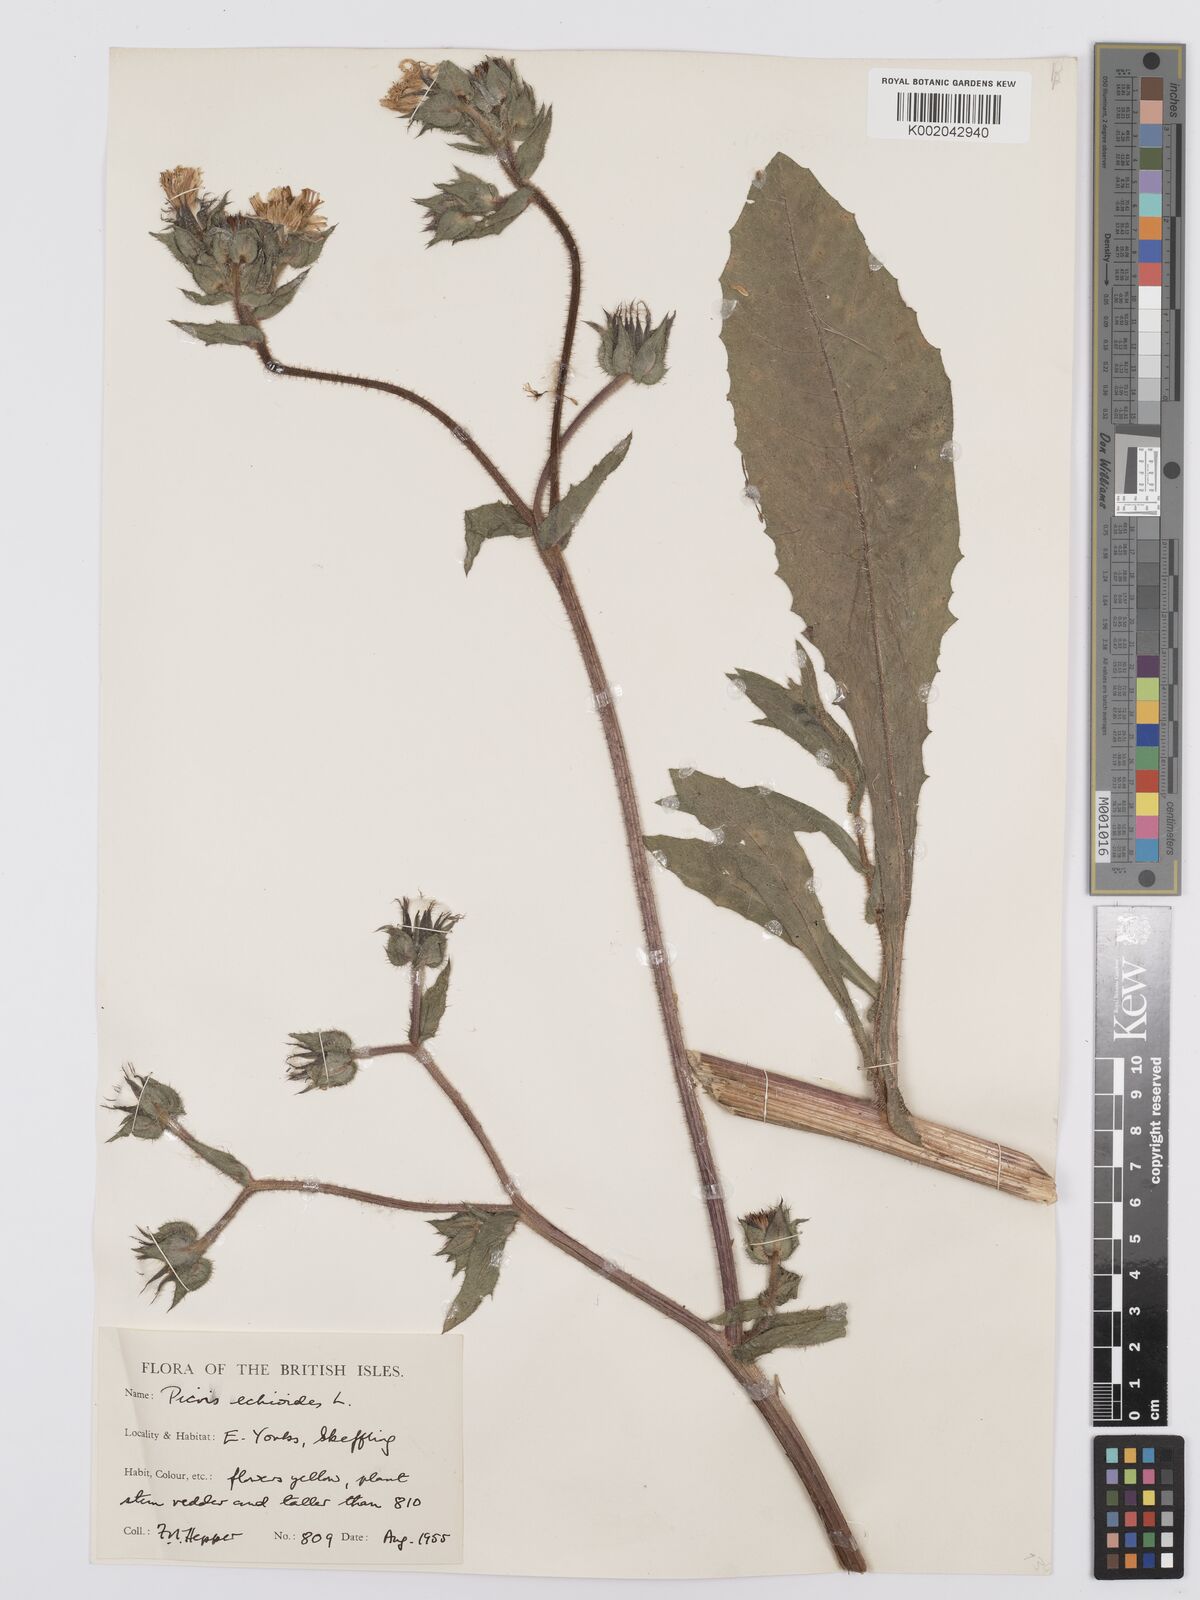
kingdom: Plantae
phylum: Tracheophyta
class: Magnoliopsida
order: Asterales
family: Asteraceae
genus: Helminthotheca
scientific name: Helminthotheca echioides
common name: Ox-tongue
